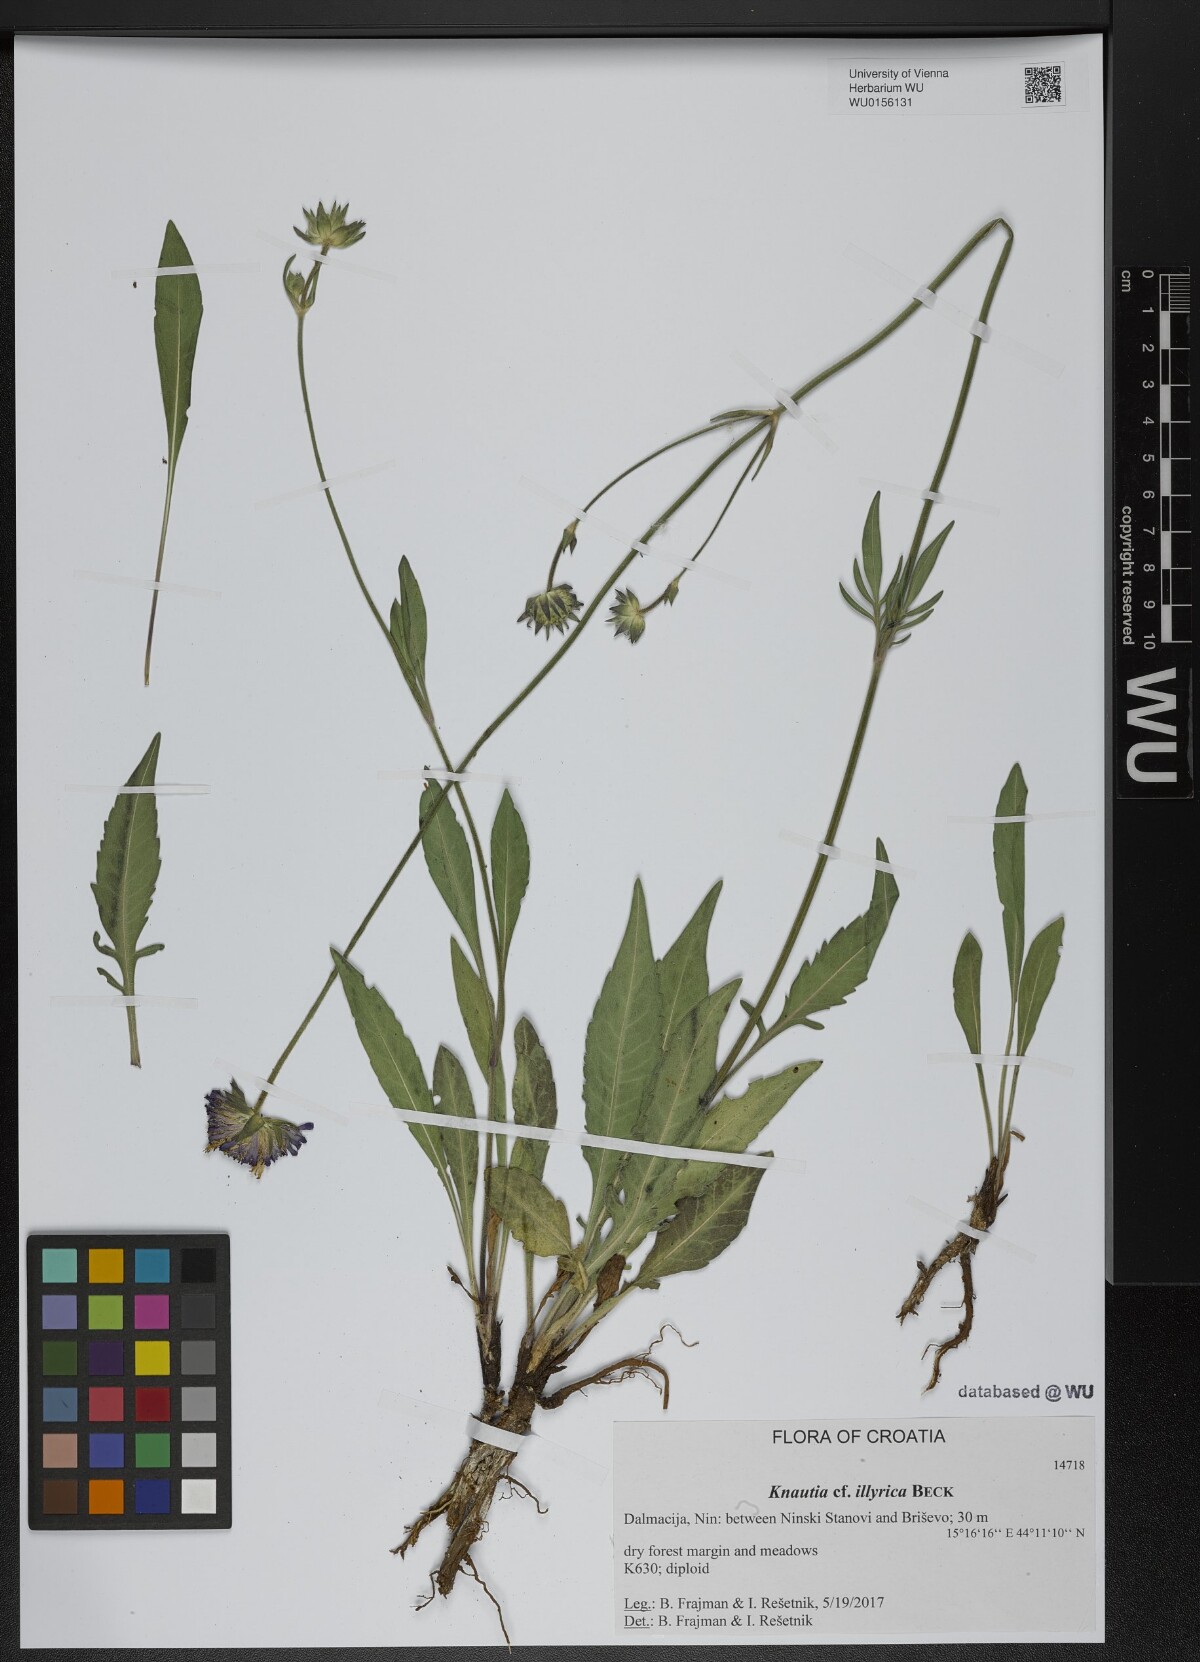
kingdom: Plantae
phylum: Tracheophyta
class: Magnoliopsida
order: Dipsacales
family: Caprifoliaceae
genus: Knautia
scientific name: Knautia illyrica
